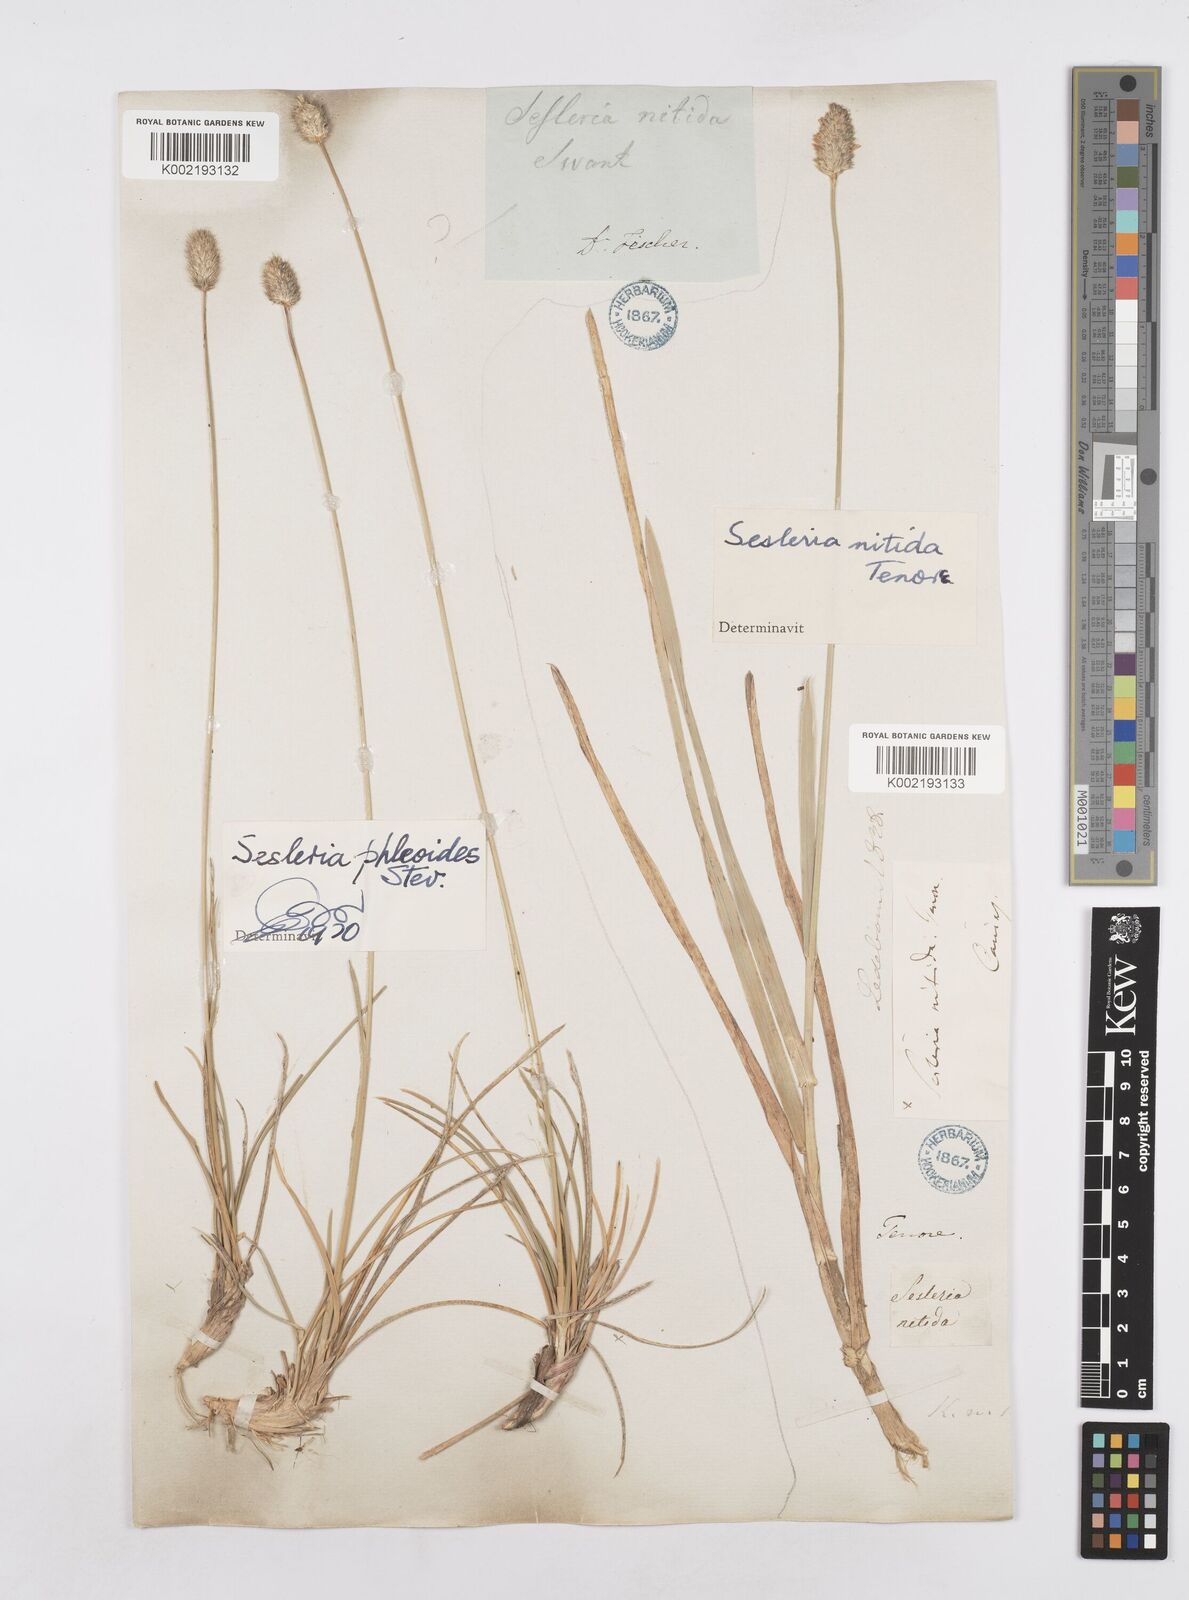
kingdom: Plantae
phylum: Tracheophyta
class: Liliopsida
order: Poales
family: Poaceae
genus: Sesleria
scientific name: Sesleria nitida
